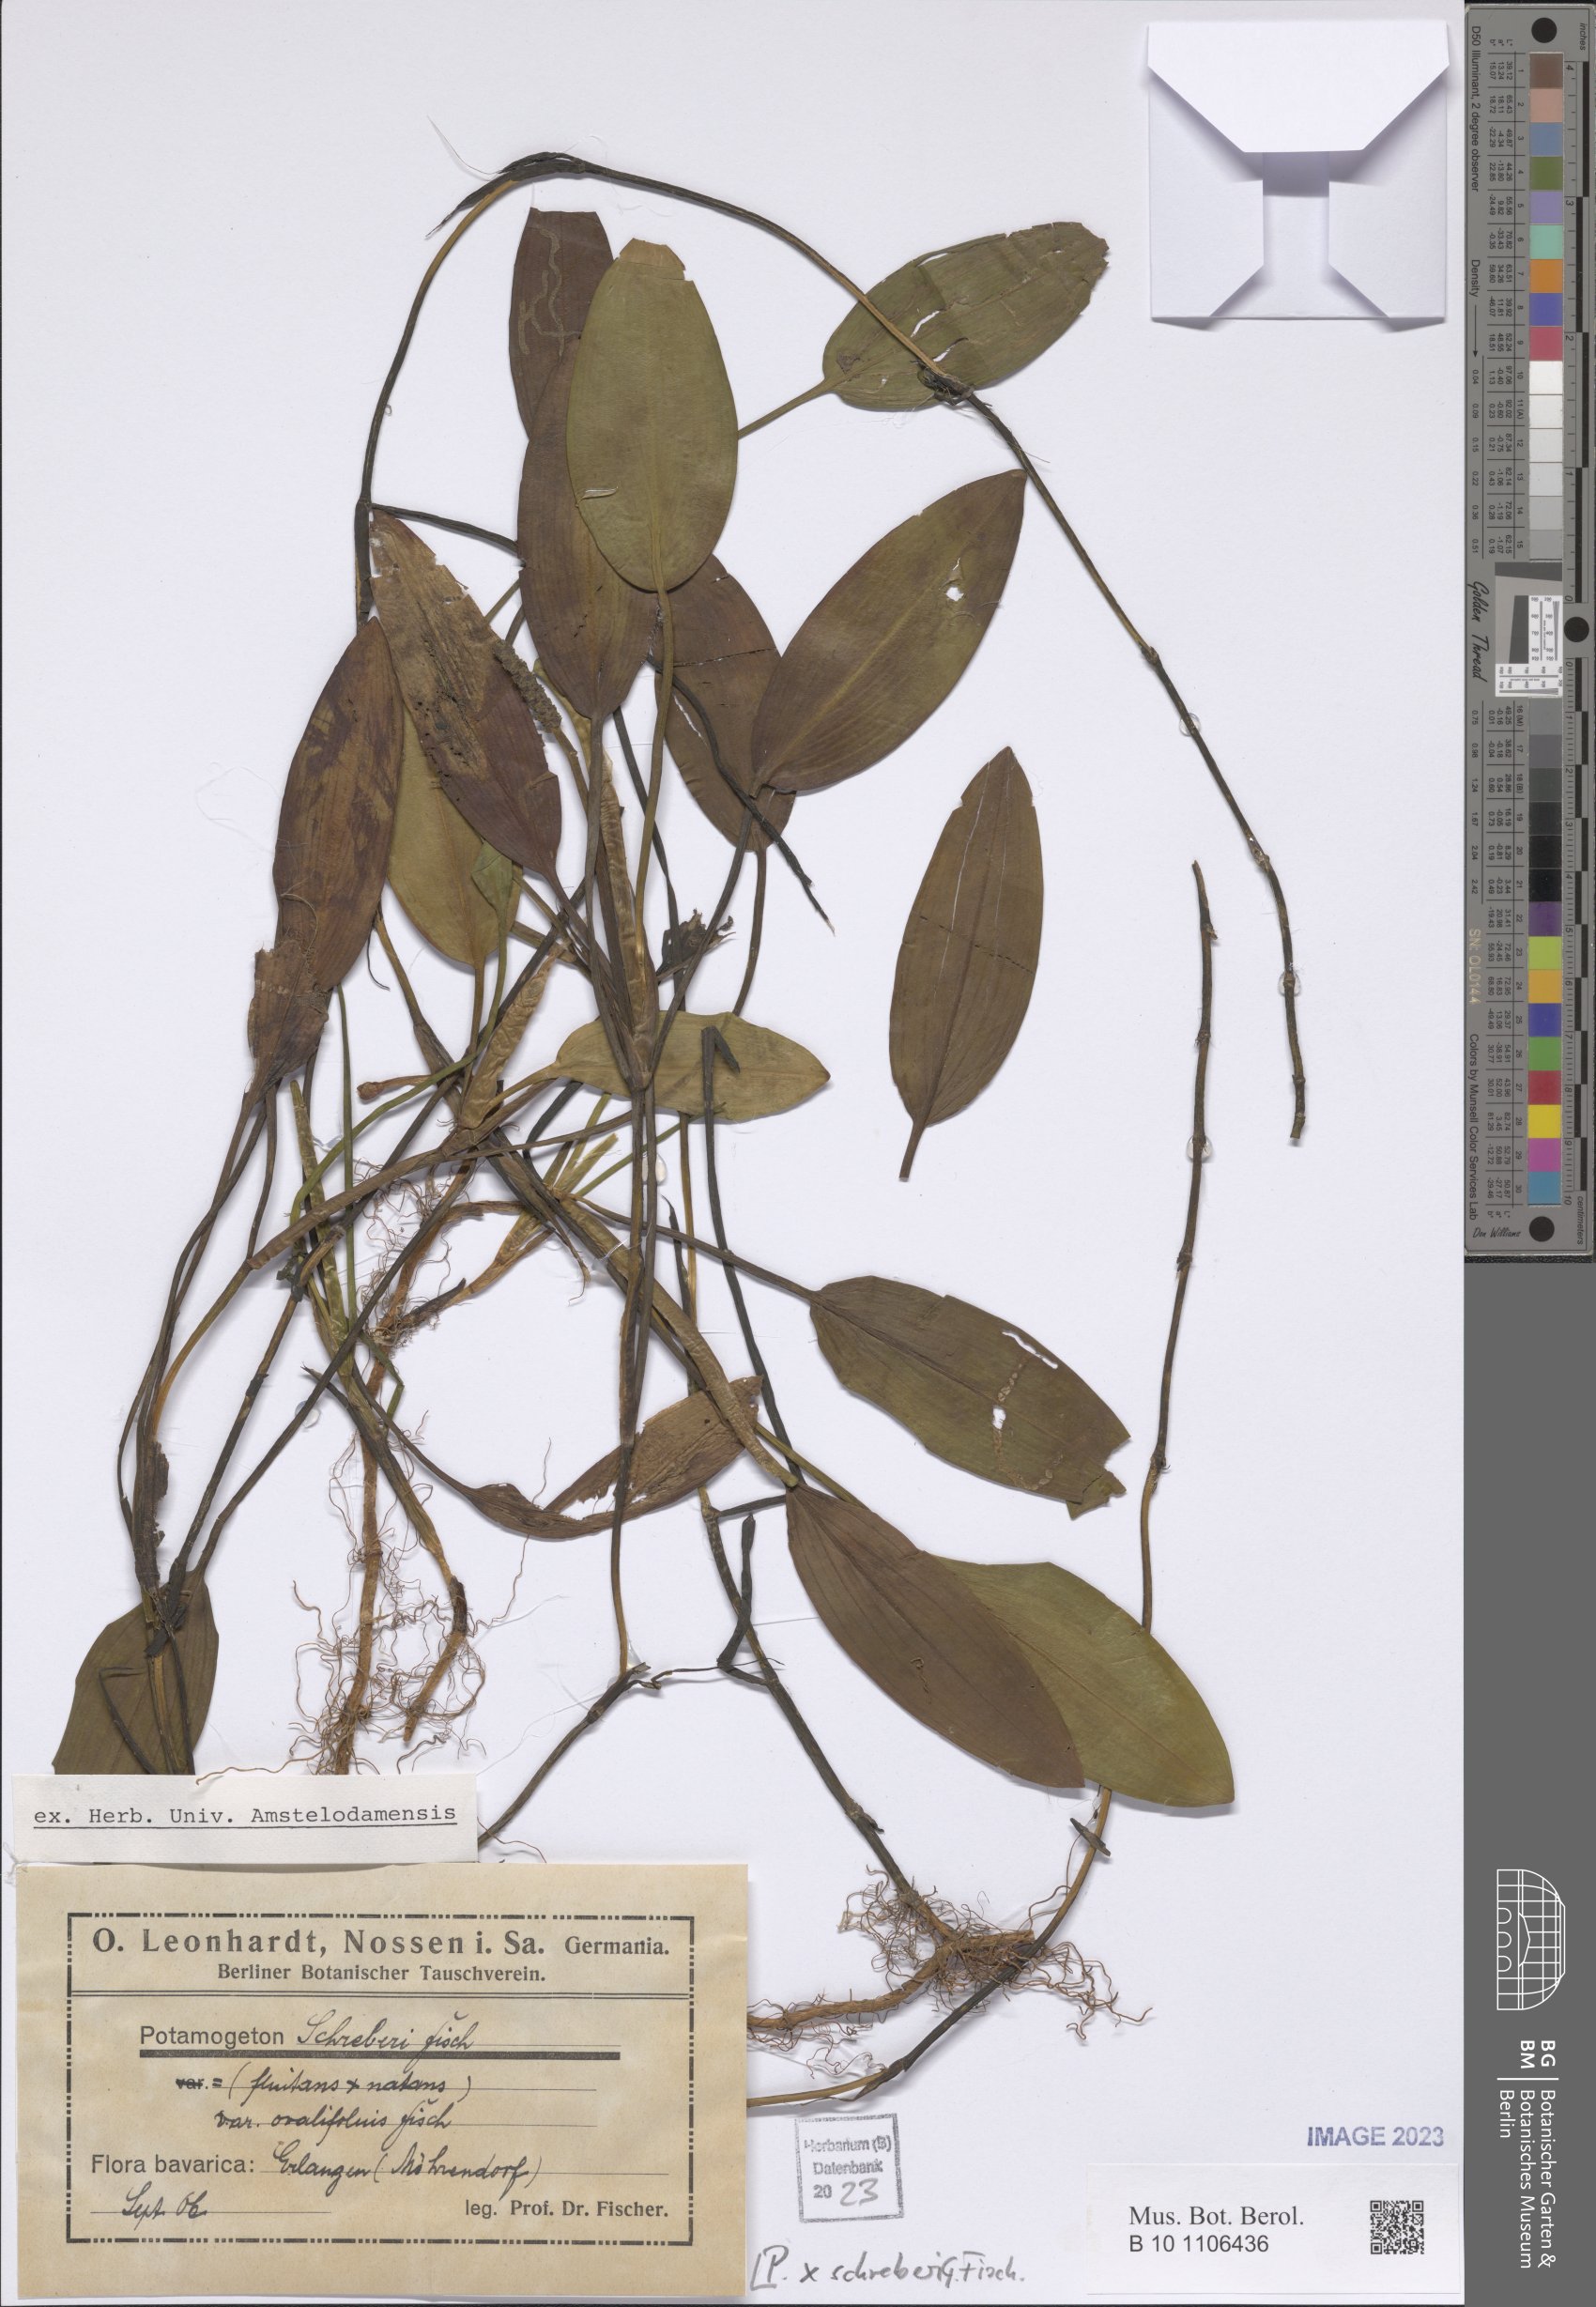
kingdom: Plantae
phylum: Tracheophyta
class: Liliopsida
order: Alismatales
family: Potamogetonaceae
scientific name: Potamogetonaceae
